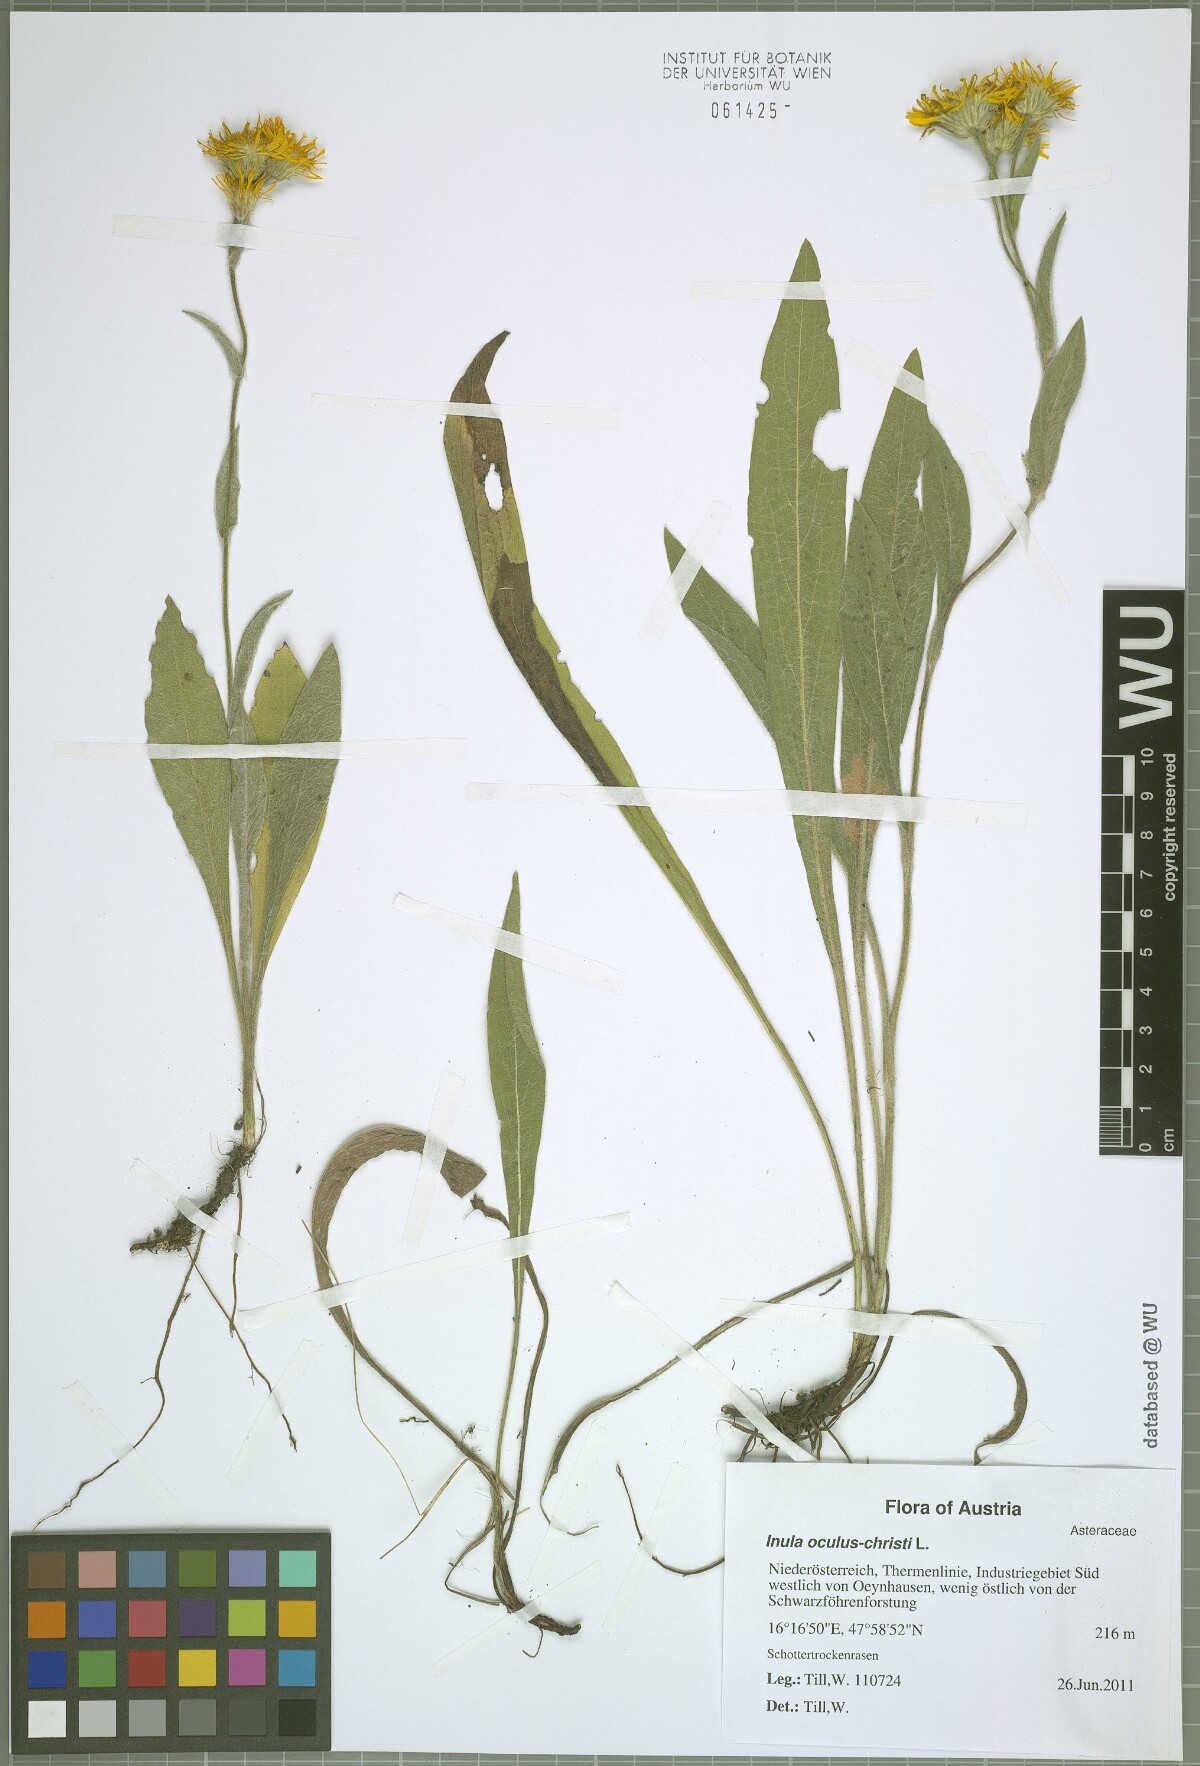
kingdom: Plantae
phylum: Tracheophyta
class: Magnoliopsida
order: Asterales
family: Asteraceae
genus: Pentanema
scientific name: Pentanema oculus-christi
